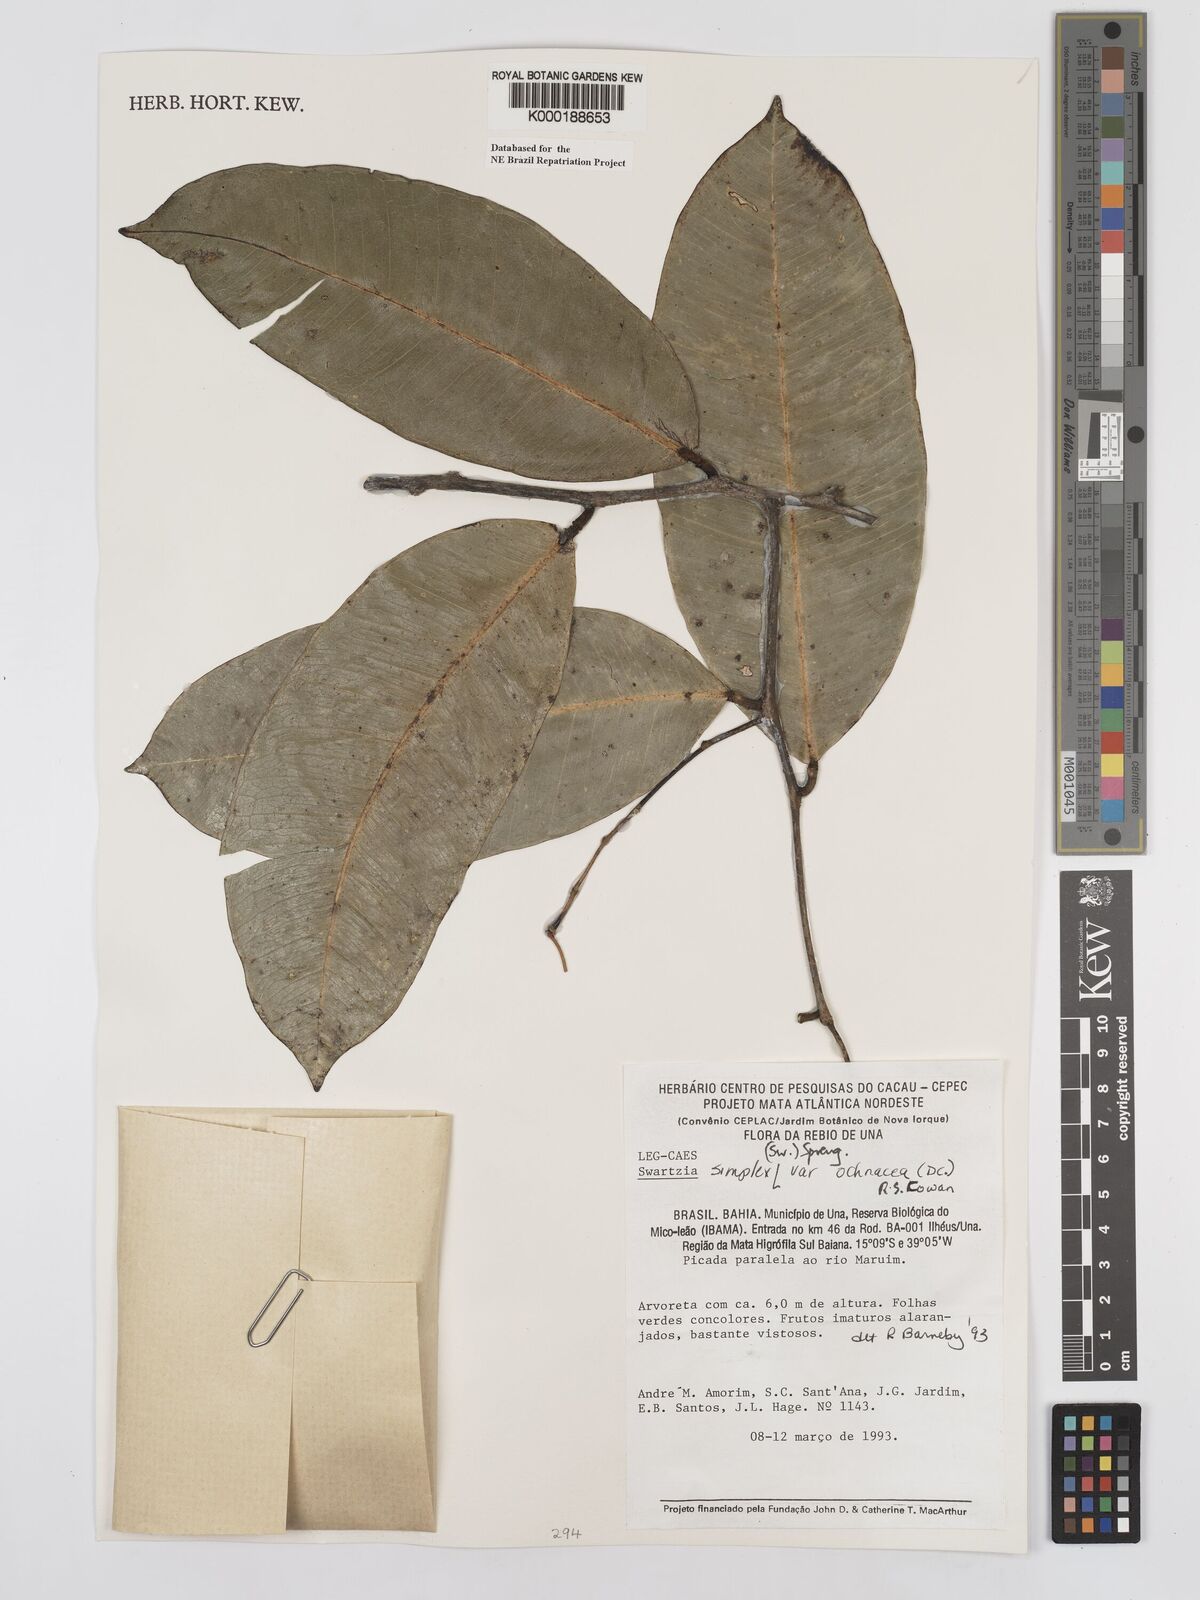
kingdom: Plantae
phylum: Tracheophyta
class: Magnoliopsida
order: Fabales
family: Fabaceae
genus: Swartzia
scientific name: Swartzia simplex
